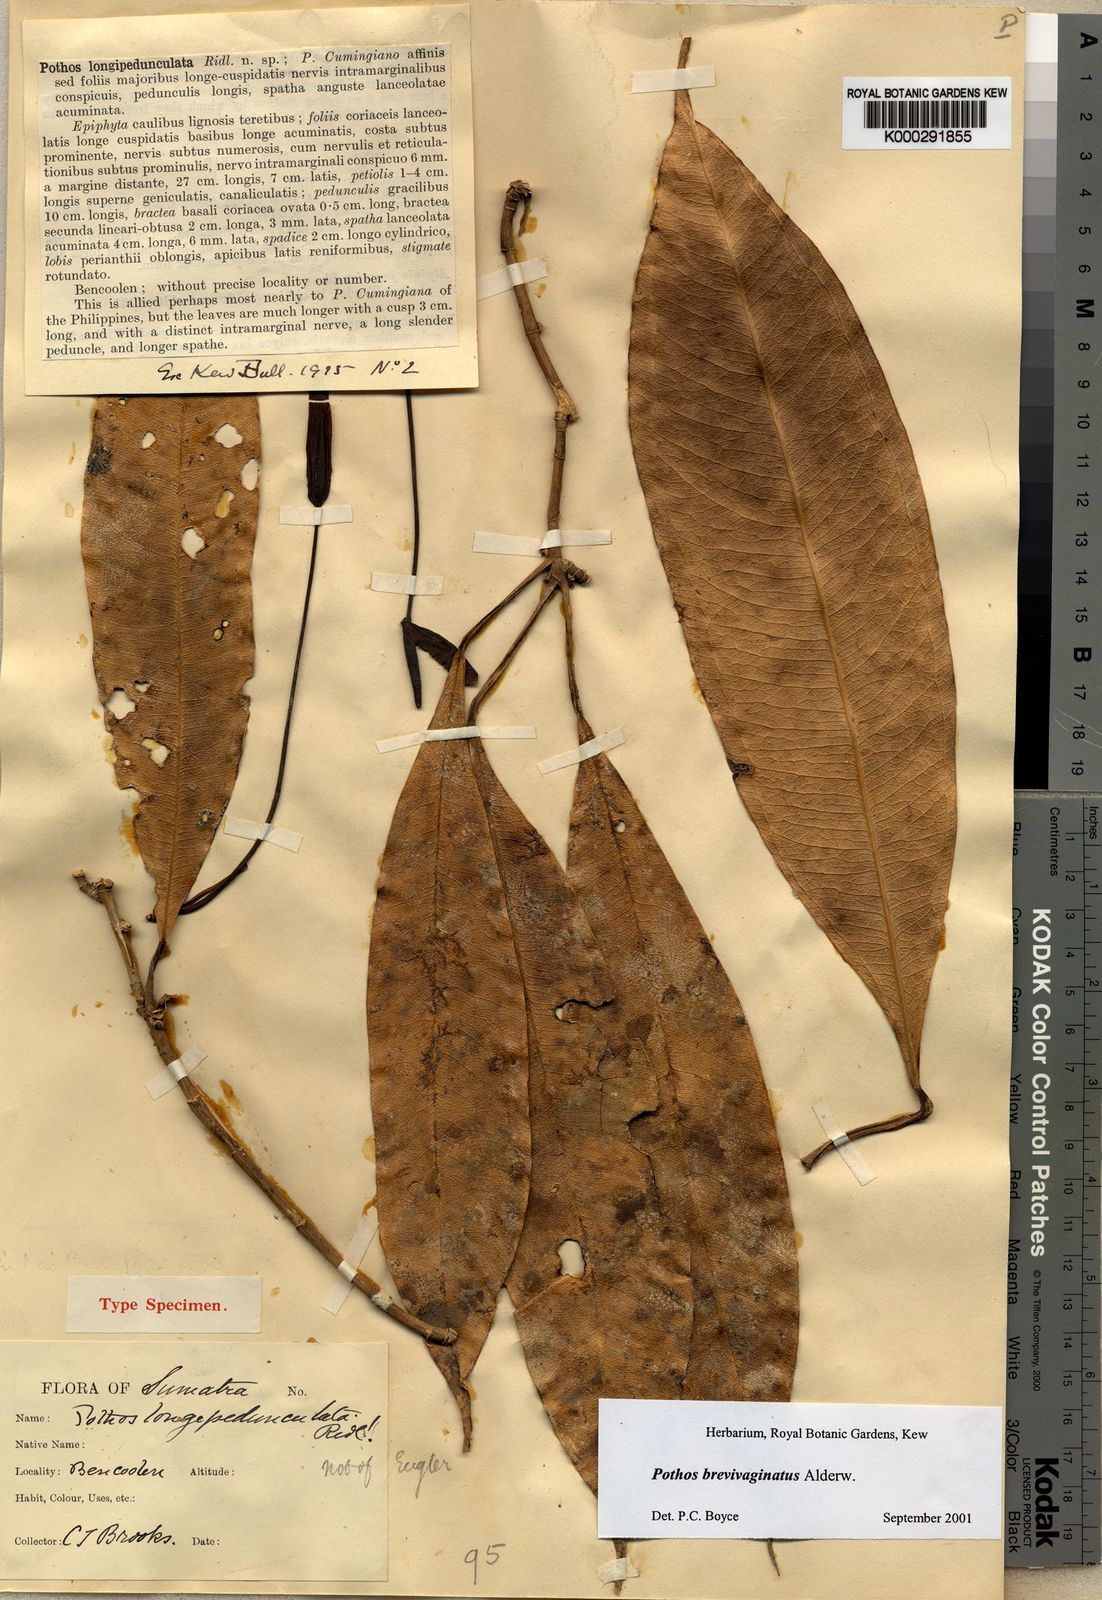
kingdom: Plantae
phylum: Tracheophyta
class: Liliopsida
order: Alismatales
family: Araceae
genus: Pothos
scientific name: Pothos brevivaginatus
